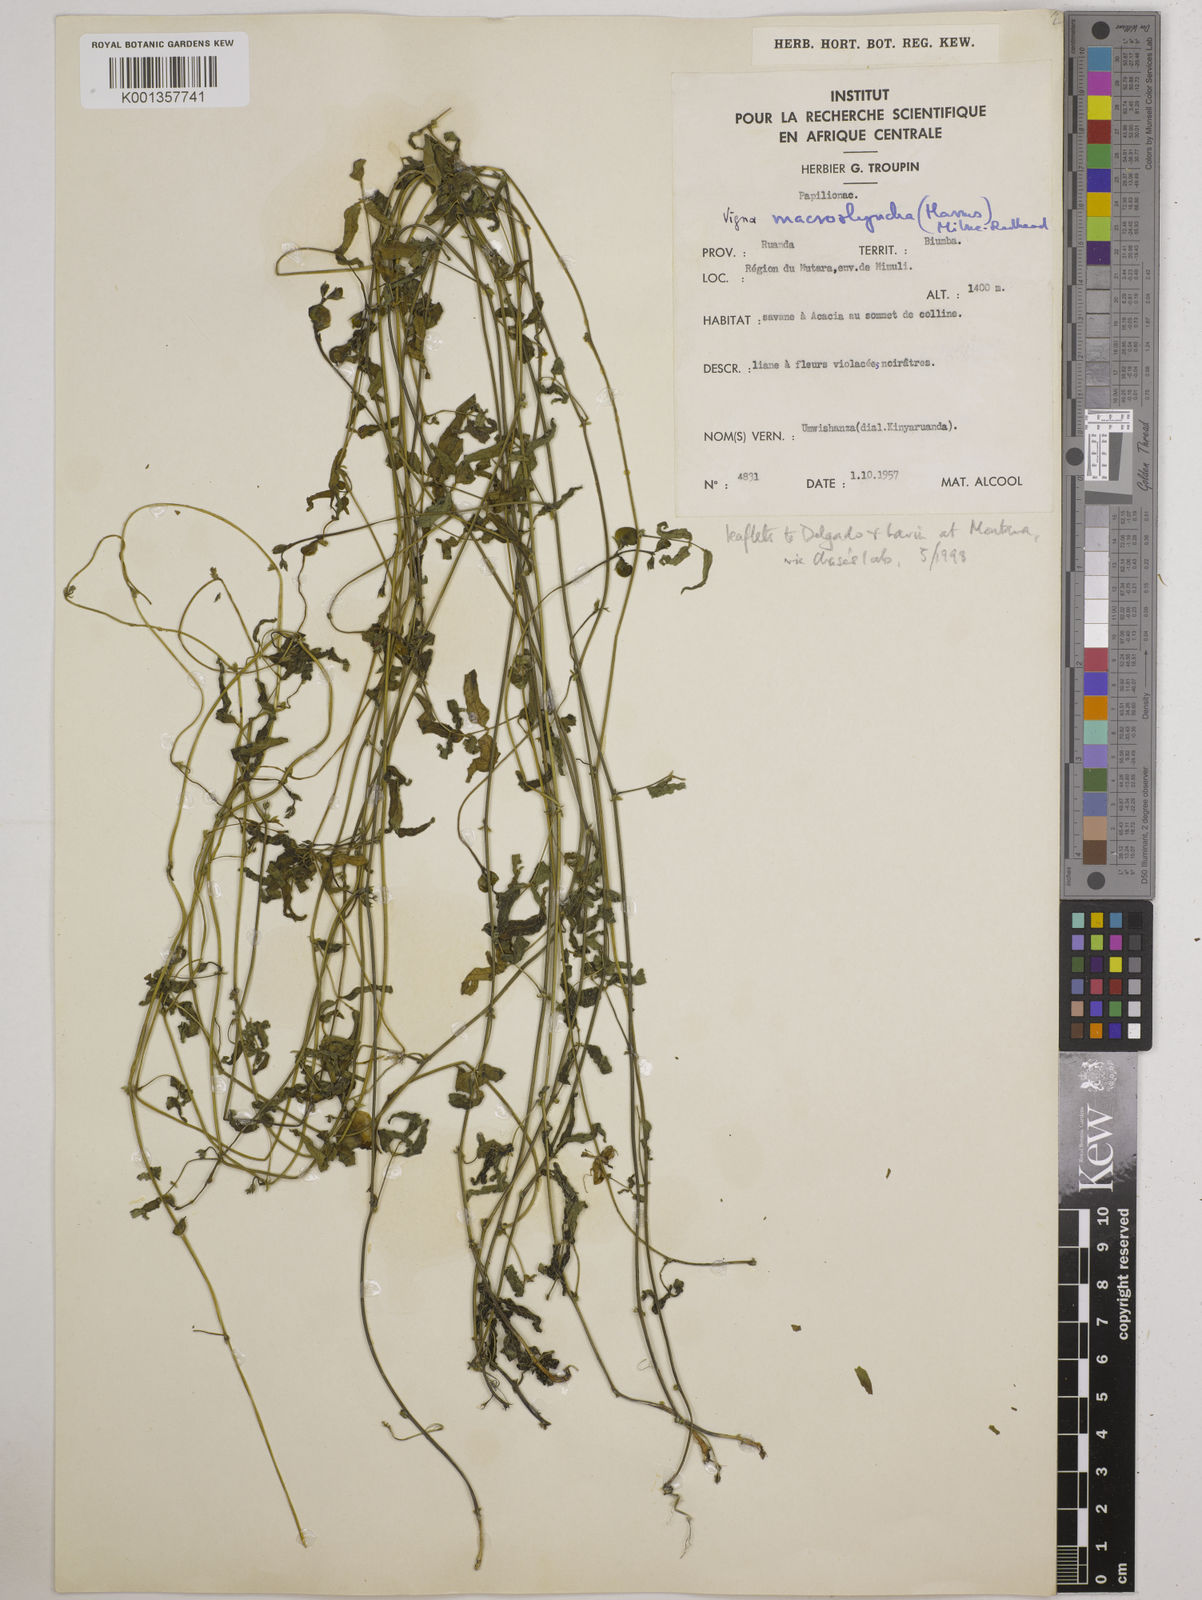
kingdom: Plantae
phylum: Tracheophyta
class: Magnoliopsida
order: Fabales
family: Fabaceae
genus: Wajira
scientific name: Wajira grahamiana
